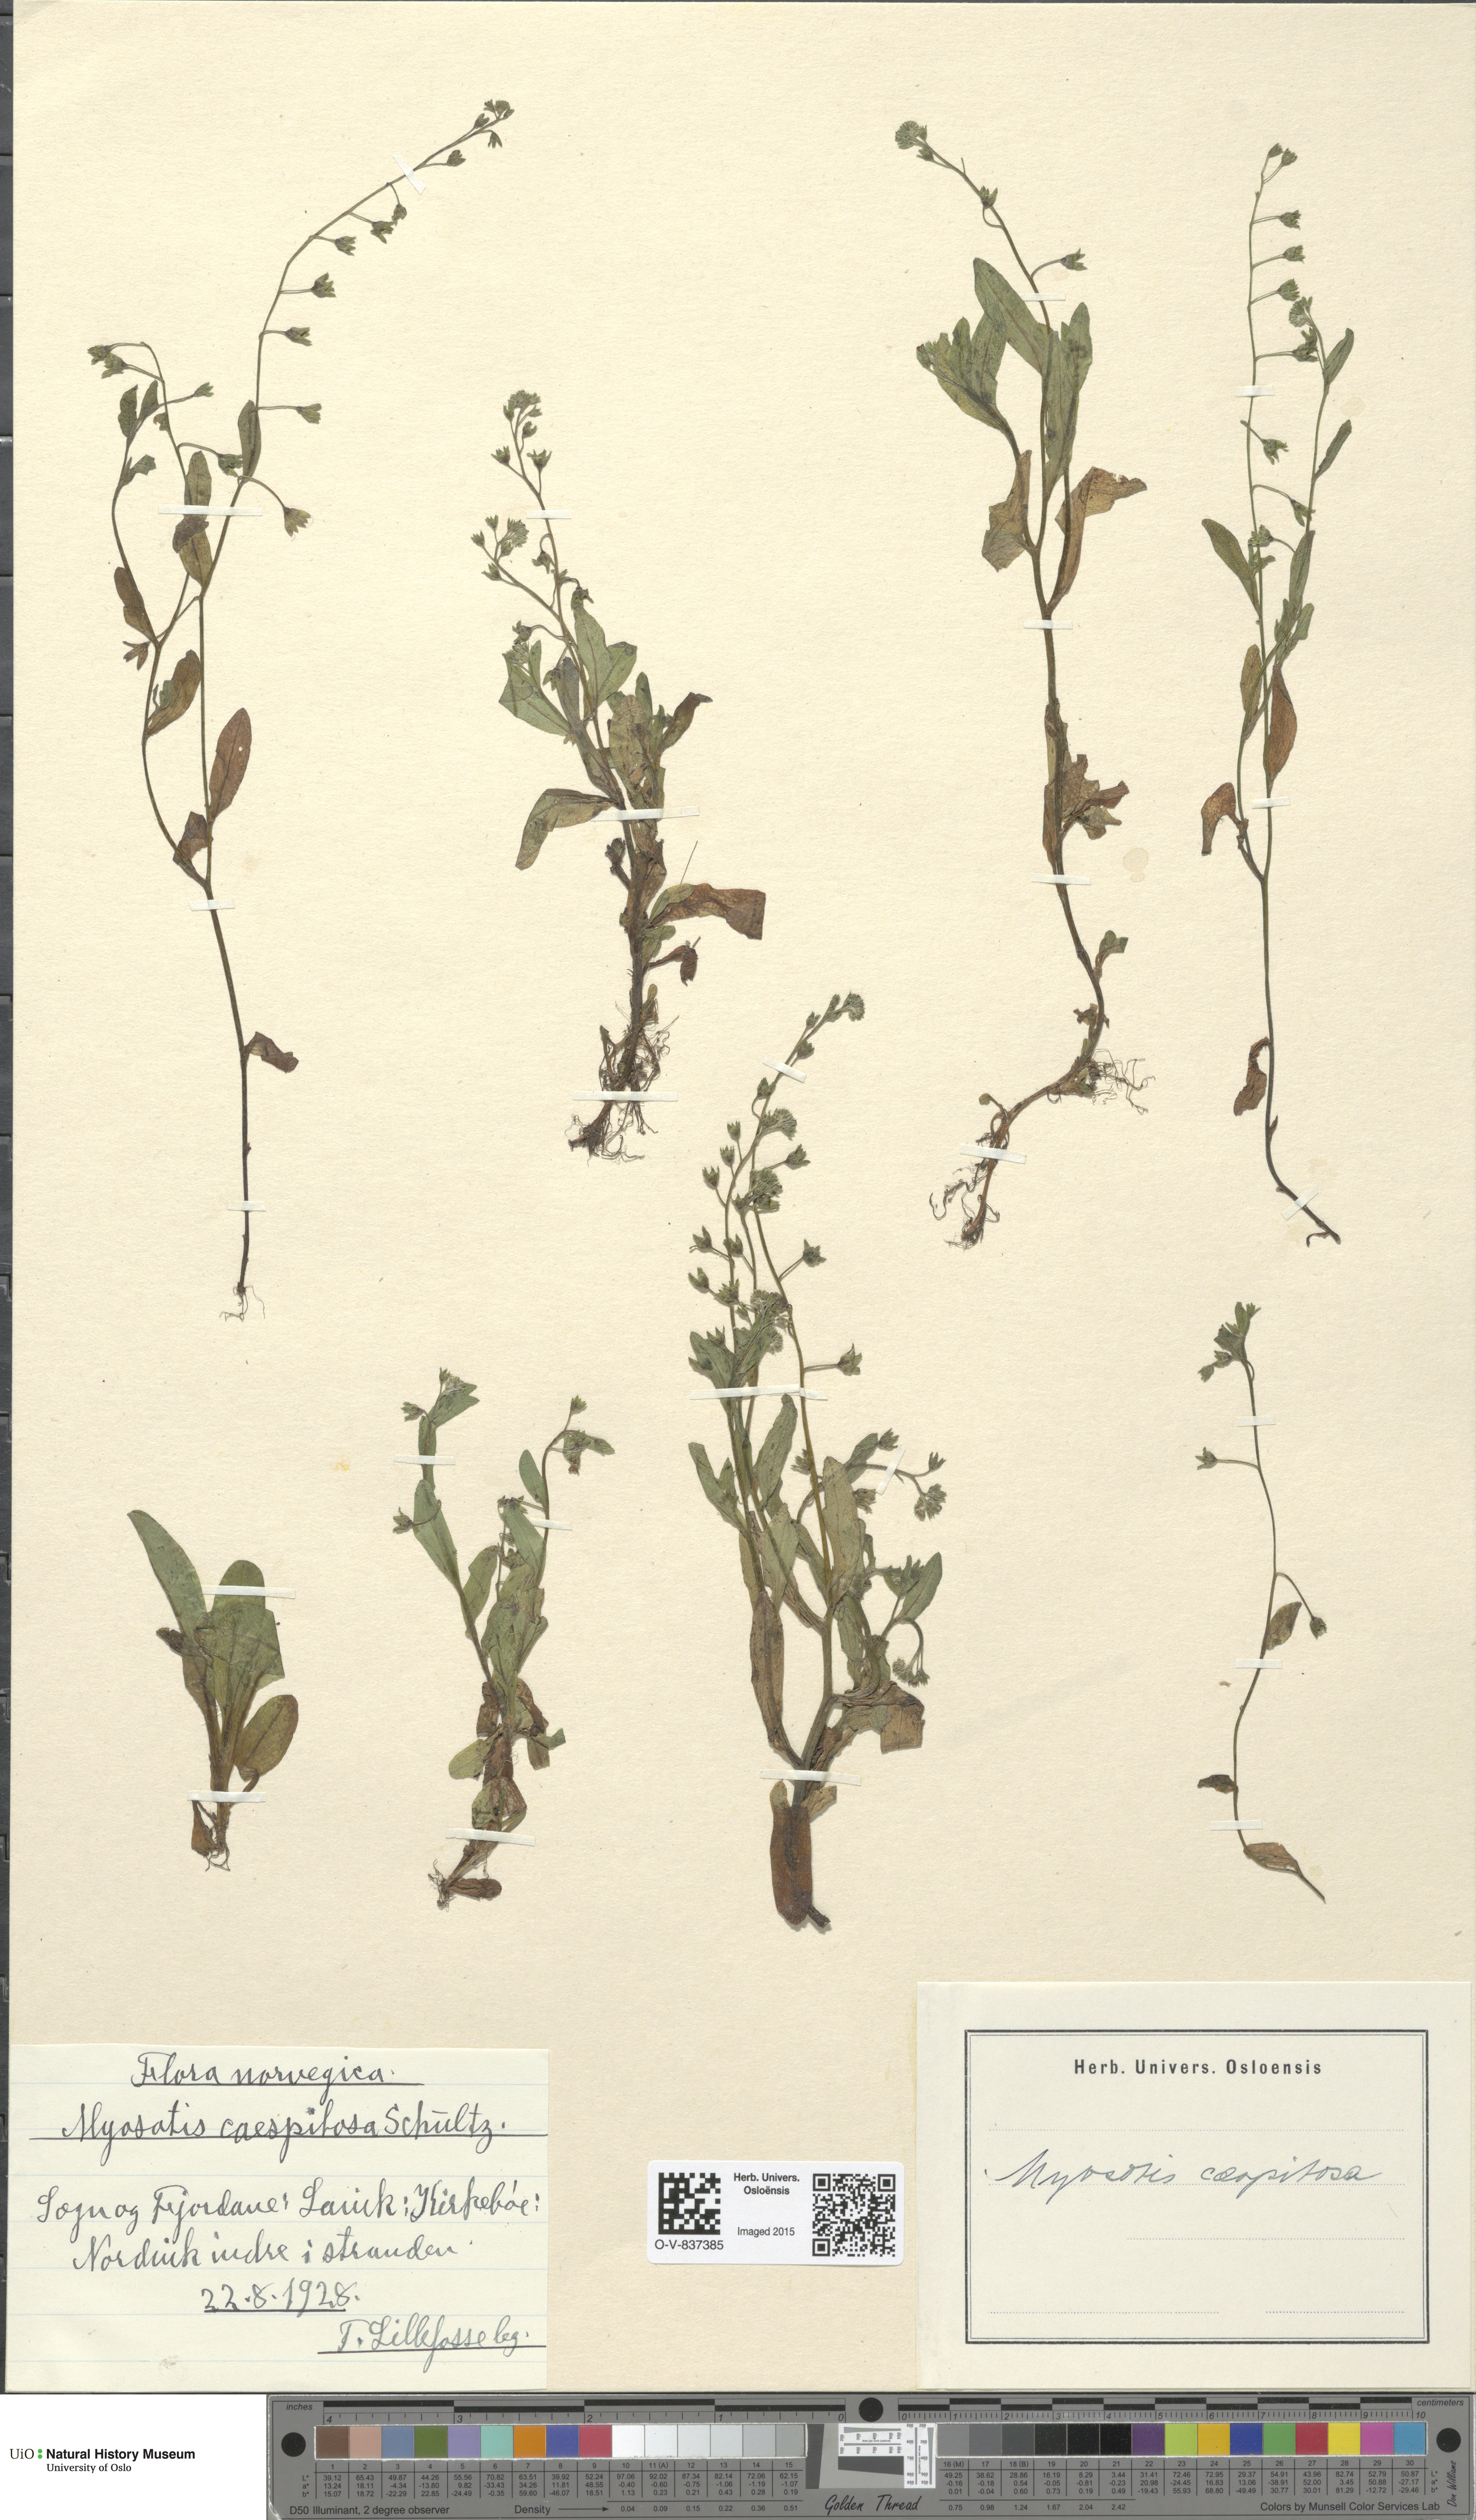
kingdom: Plantae
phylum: Tracheophyta
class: Magnoliopsida
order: Boraginales
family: Boraginaceae
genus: Myosotis
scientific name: Myosotis laxa
